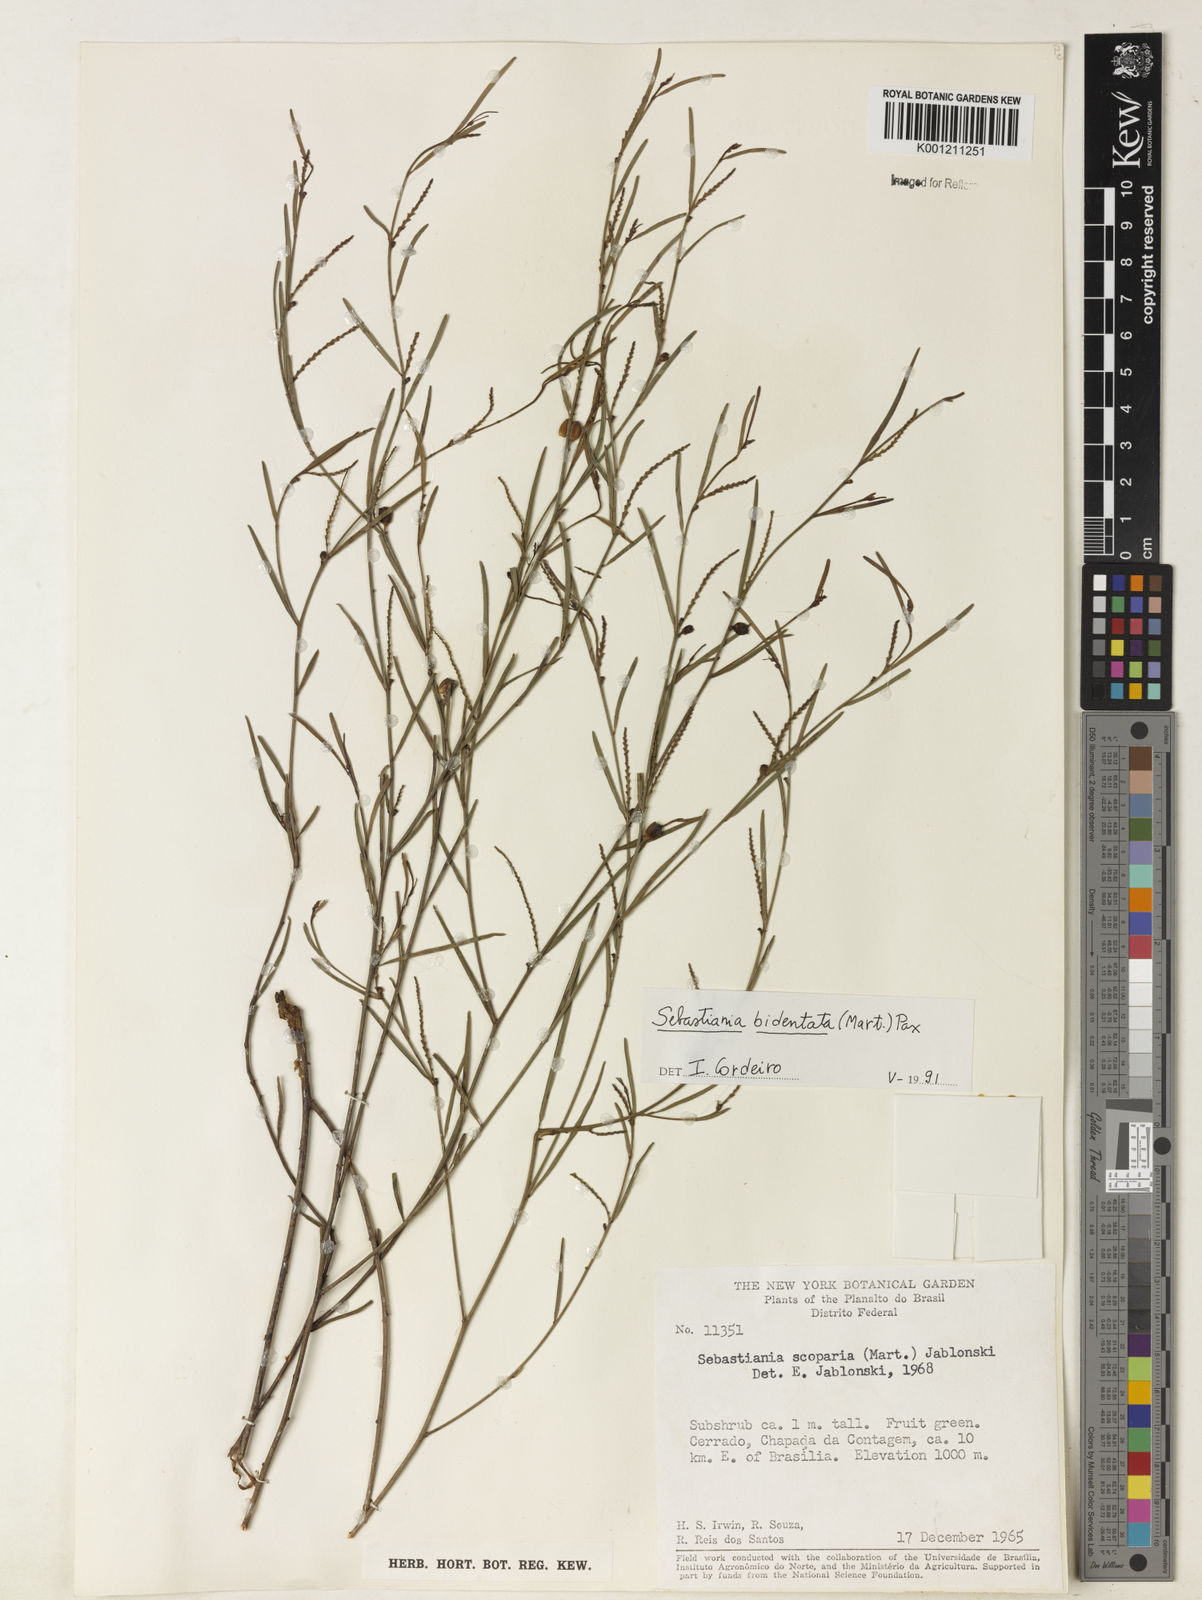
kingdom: Plantae
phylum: Tracheophyta
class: Magnoliopsida
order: Malpighiales
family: Euphorbiaceae
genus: Microstachys
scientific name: Microstachys bidentata
